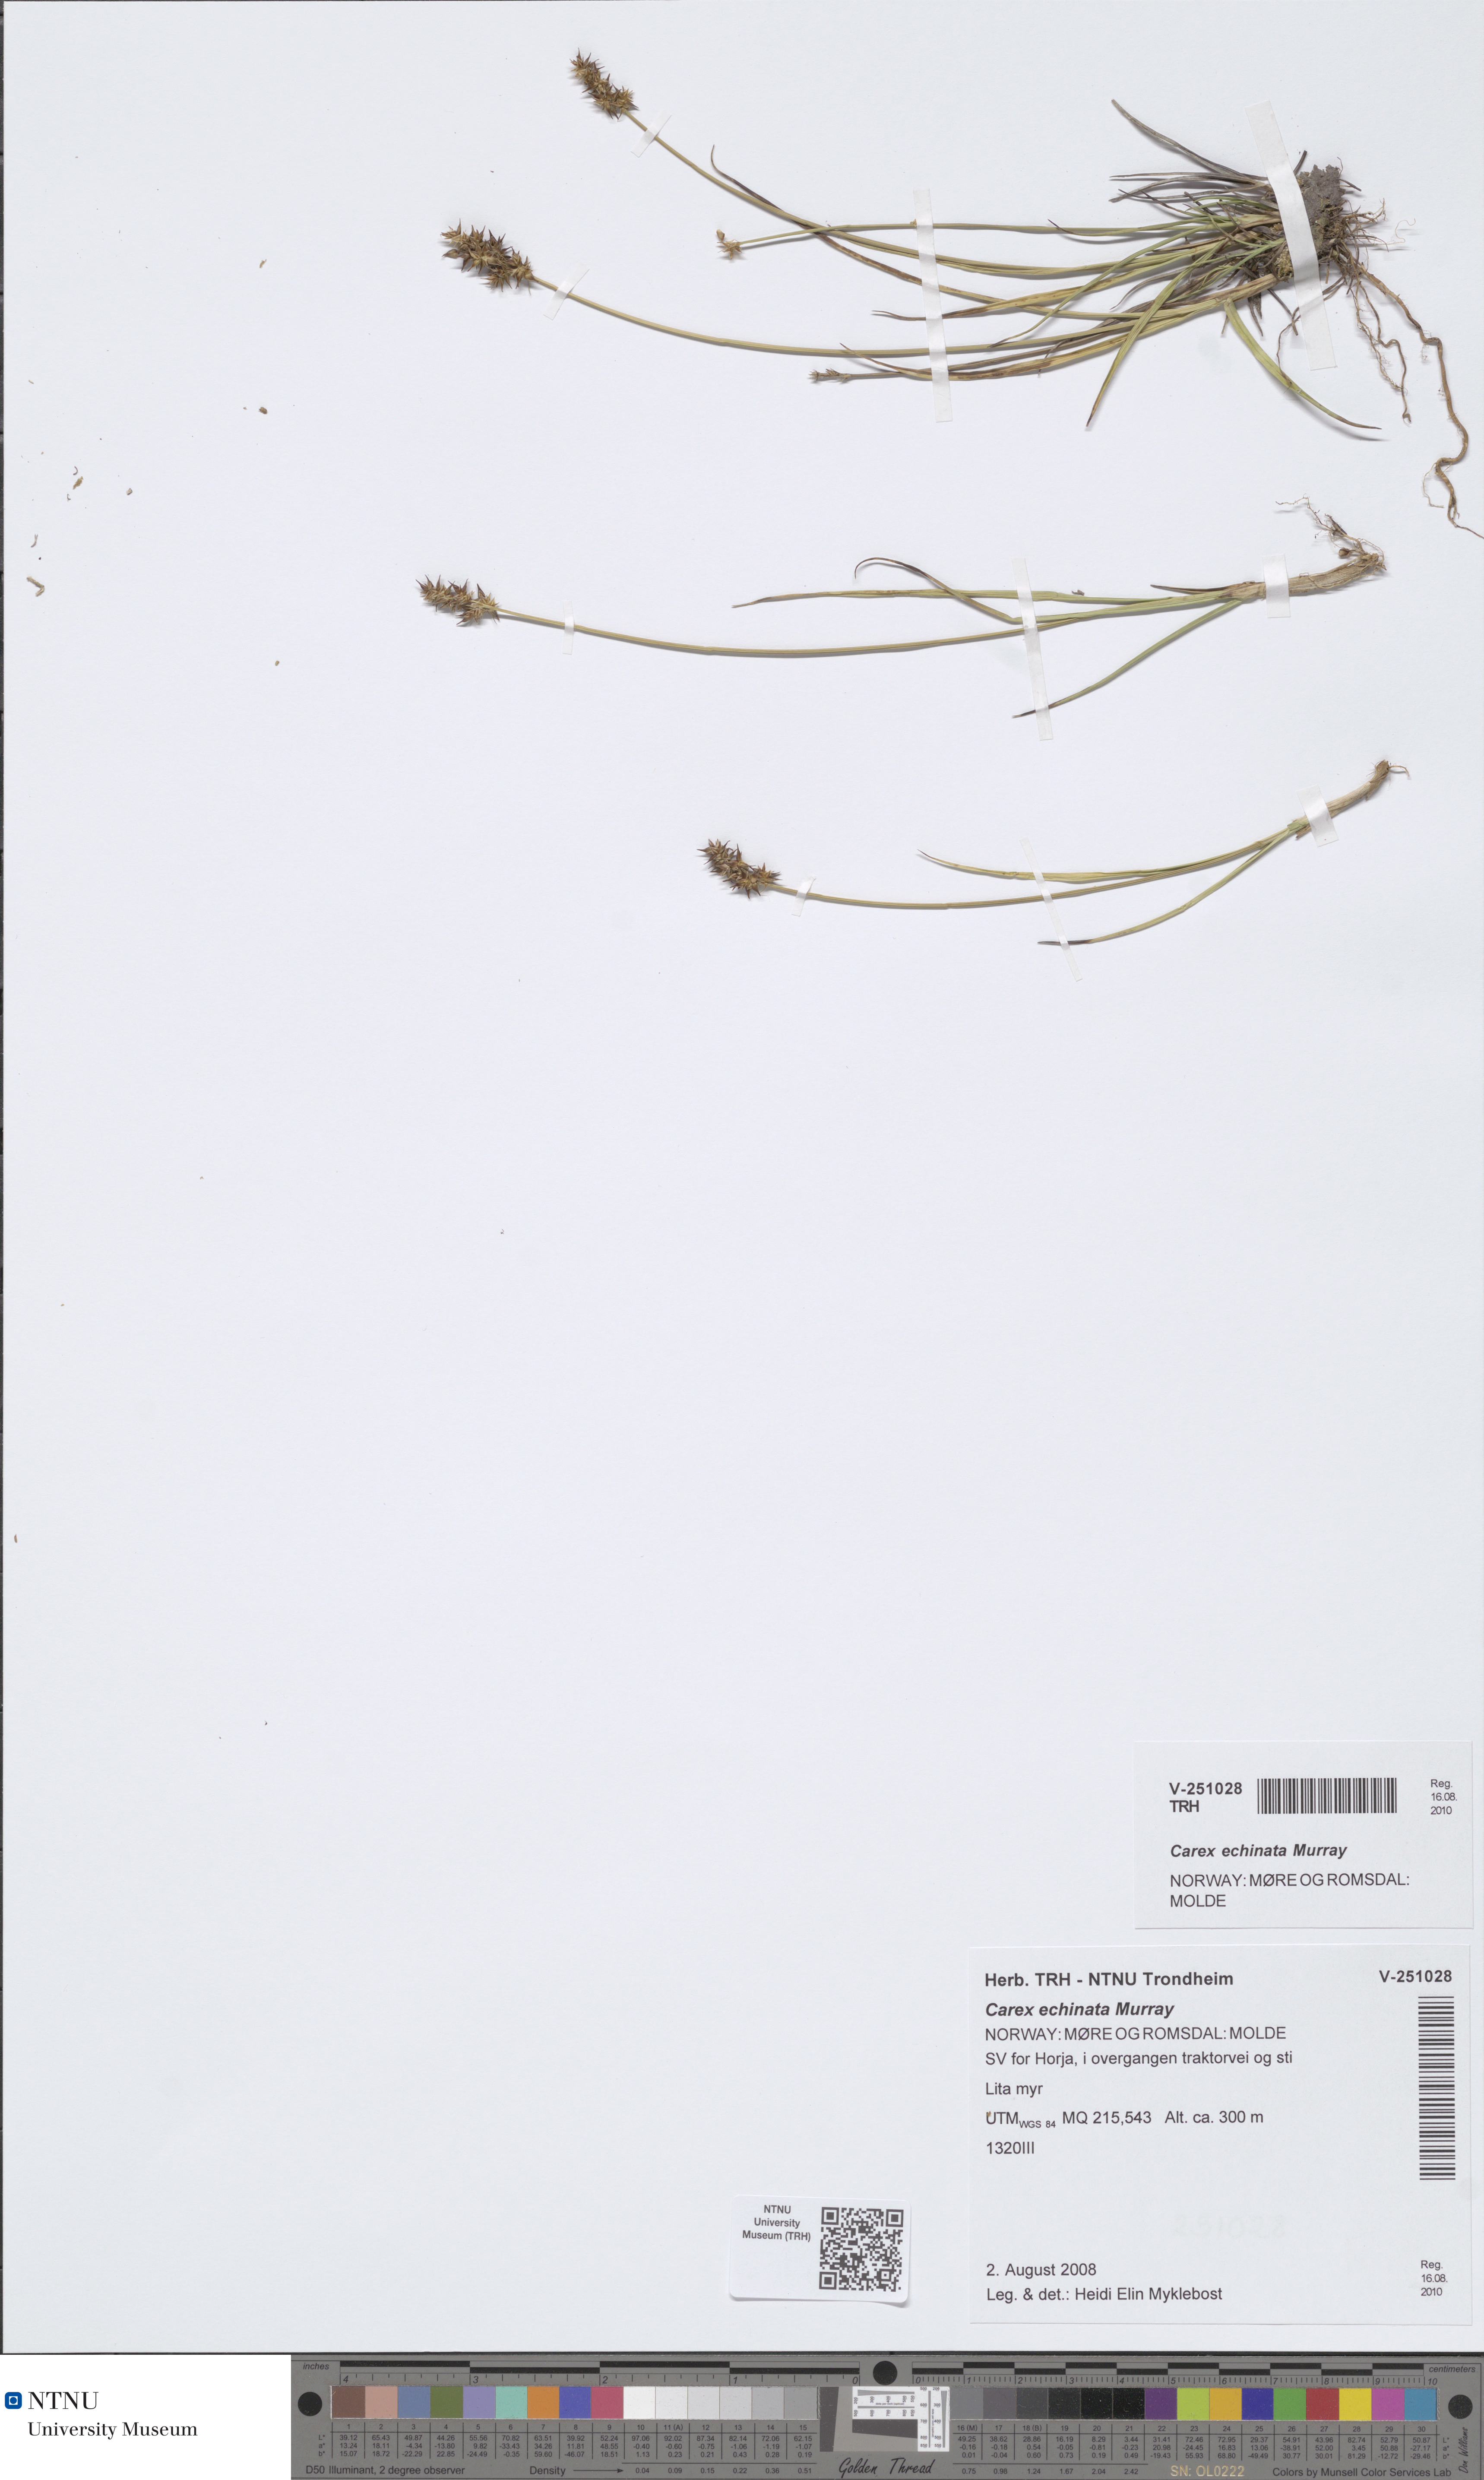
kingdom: Plantae
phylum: Tracheophyta
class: Liliopsida
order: Poales
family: Cyperaceae
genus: Carex
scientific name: Carex echinata
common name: Star sedge
